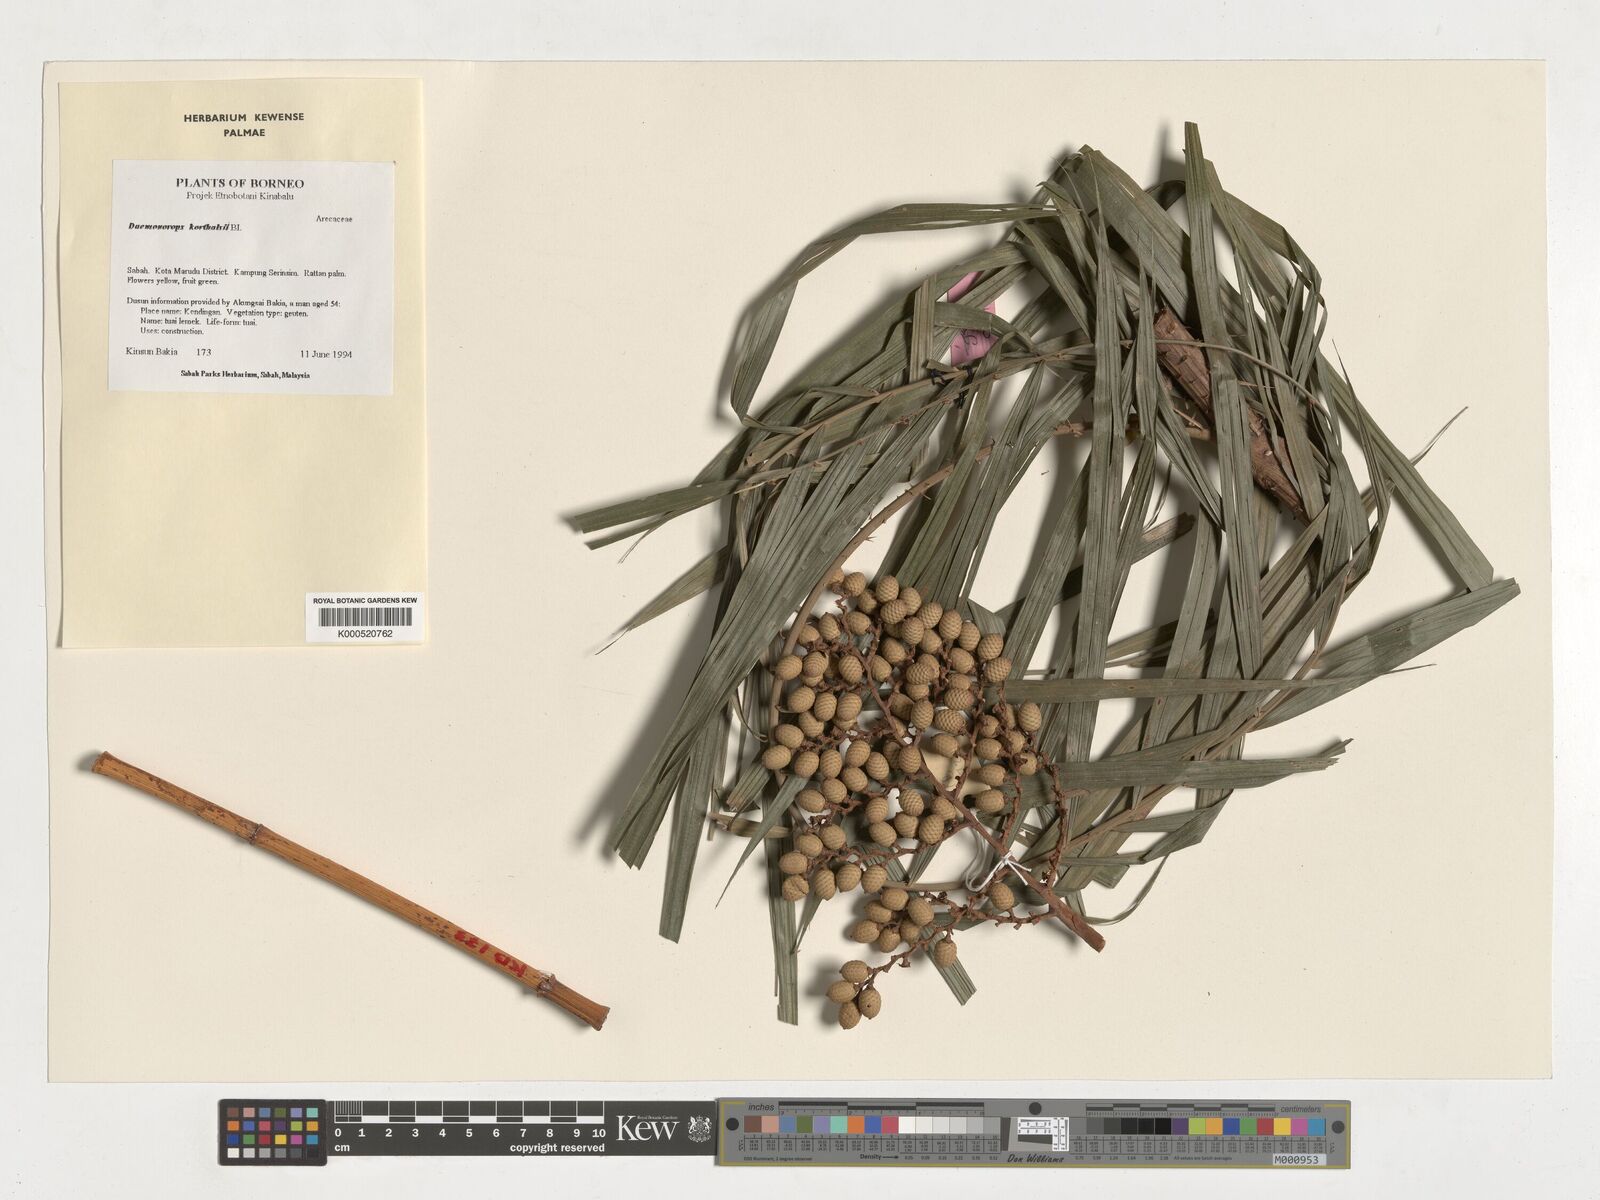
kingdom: Plantae
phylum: Tracheophyta
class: Liliopsida
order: Arecales
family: Arecaceae
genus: Calamus
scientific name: Calamus hirsutus
